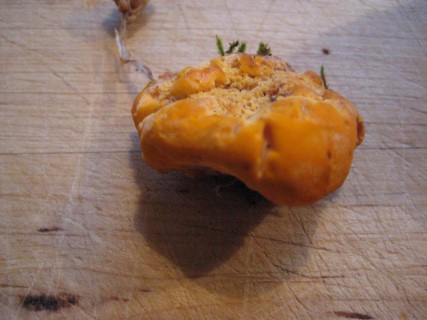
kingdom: Fungi
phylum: Basidiomycota
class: Agaricomycetes
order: Polyporales
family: Pycnoporellaceae
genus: Pycnoporellus
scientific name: Pycnoporellus fulgens
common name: flammeporesvamp
